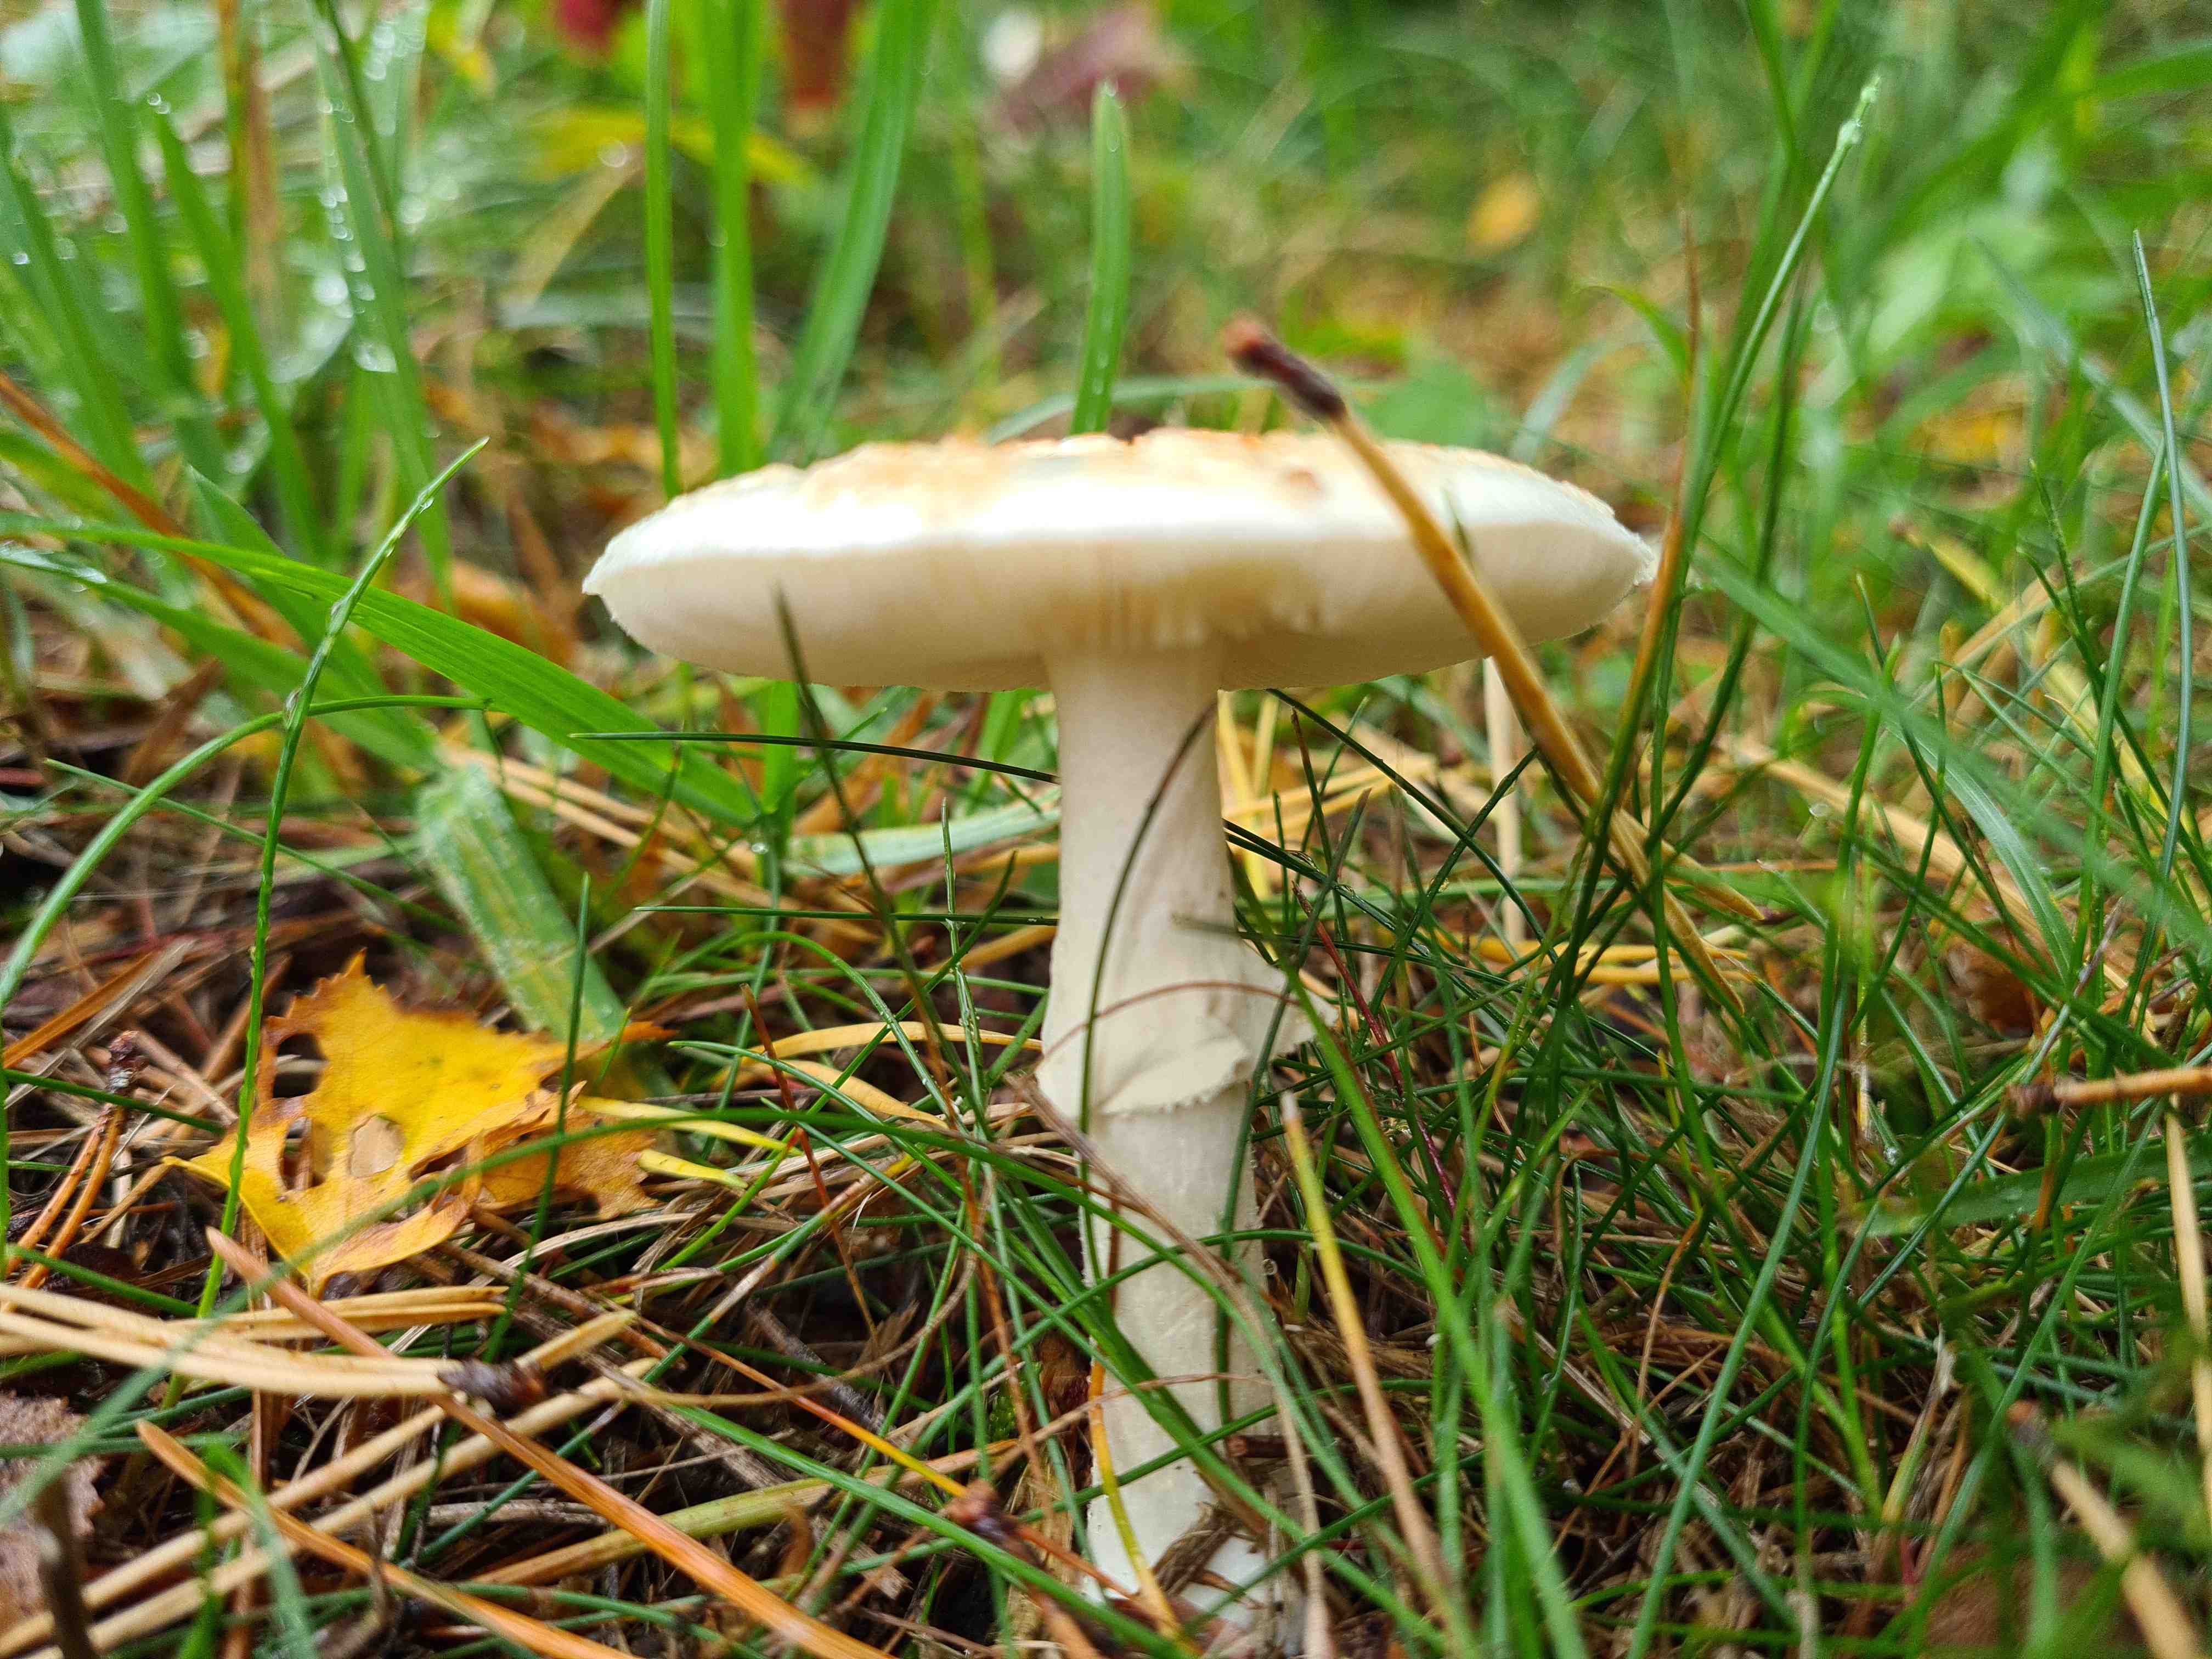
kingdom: Fungi
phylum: Basidiomycota
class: Agaricomycetes
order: Agaricales
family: Amanitaceae
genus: Amanita
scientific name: Amanita citrina
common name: False death-cap
